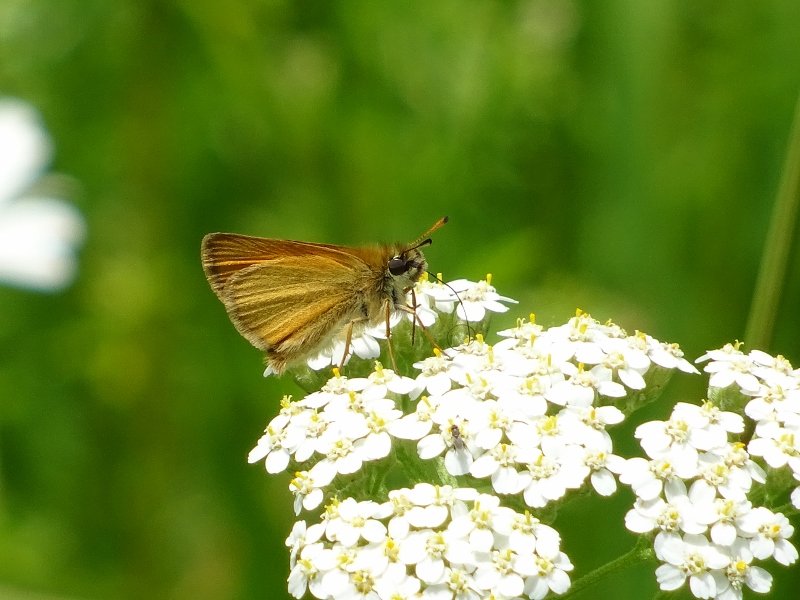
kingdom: Animalia
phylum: Arthropoda
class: Insecta
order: Lepidoptera
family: Hesperiidae
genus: Thymelicus
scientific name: Thymelicus lineola
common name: European Skipper
